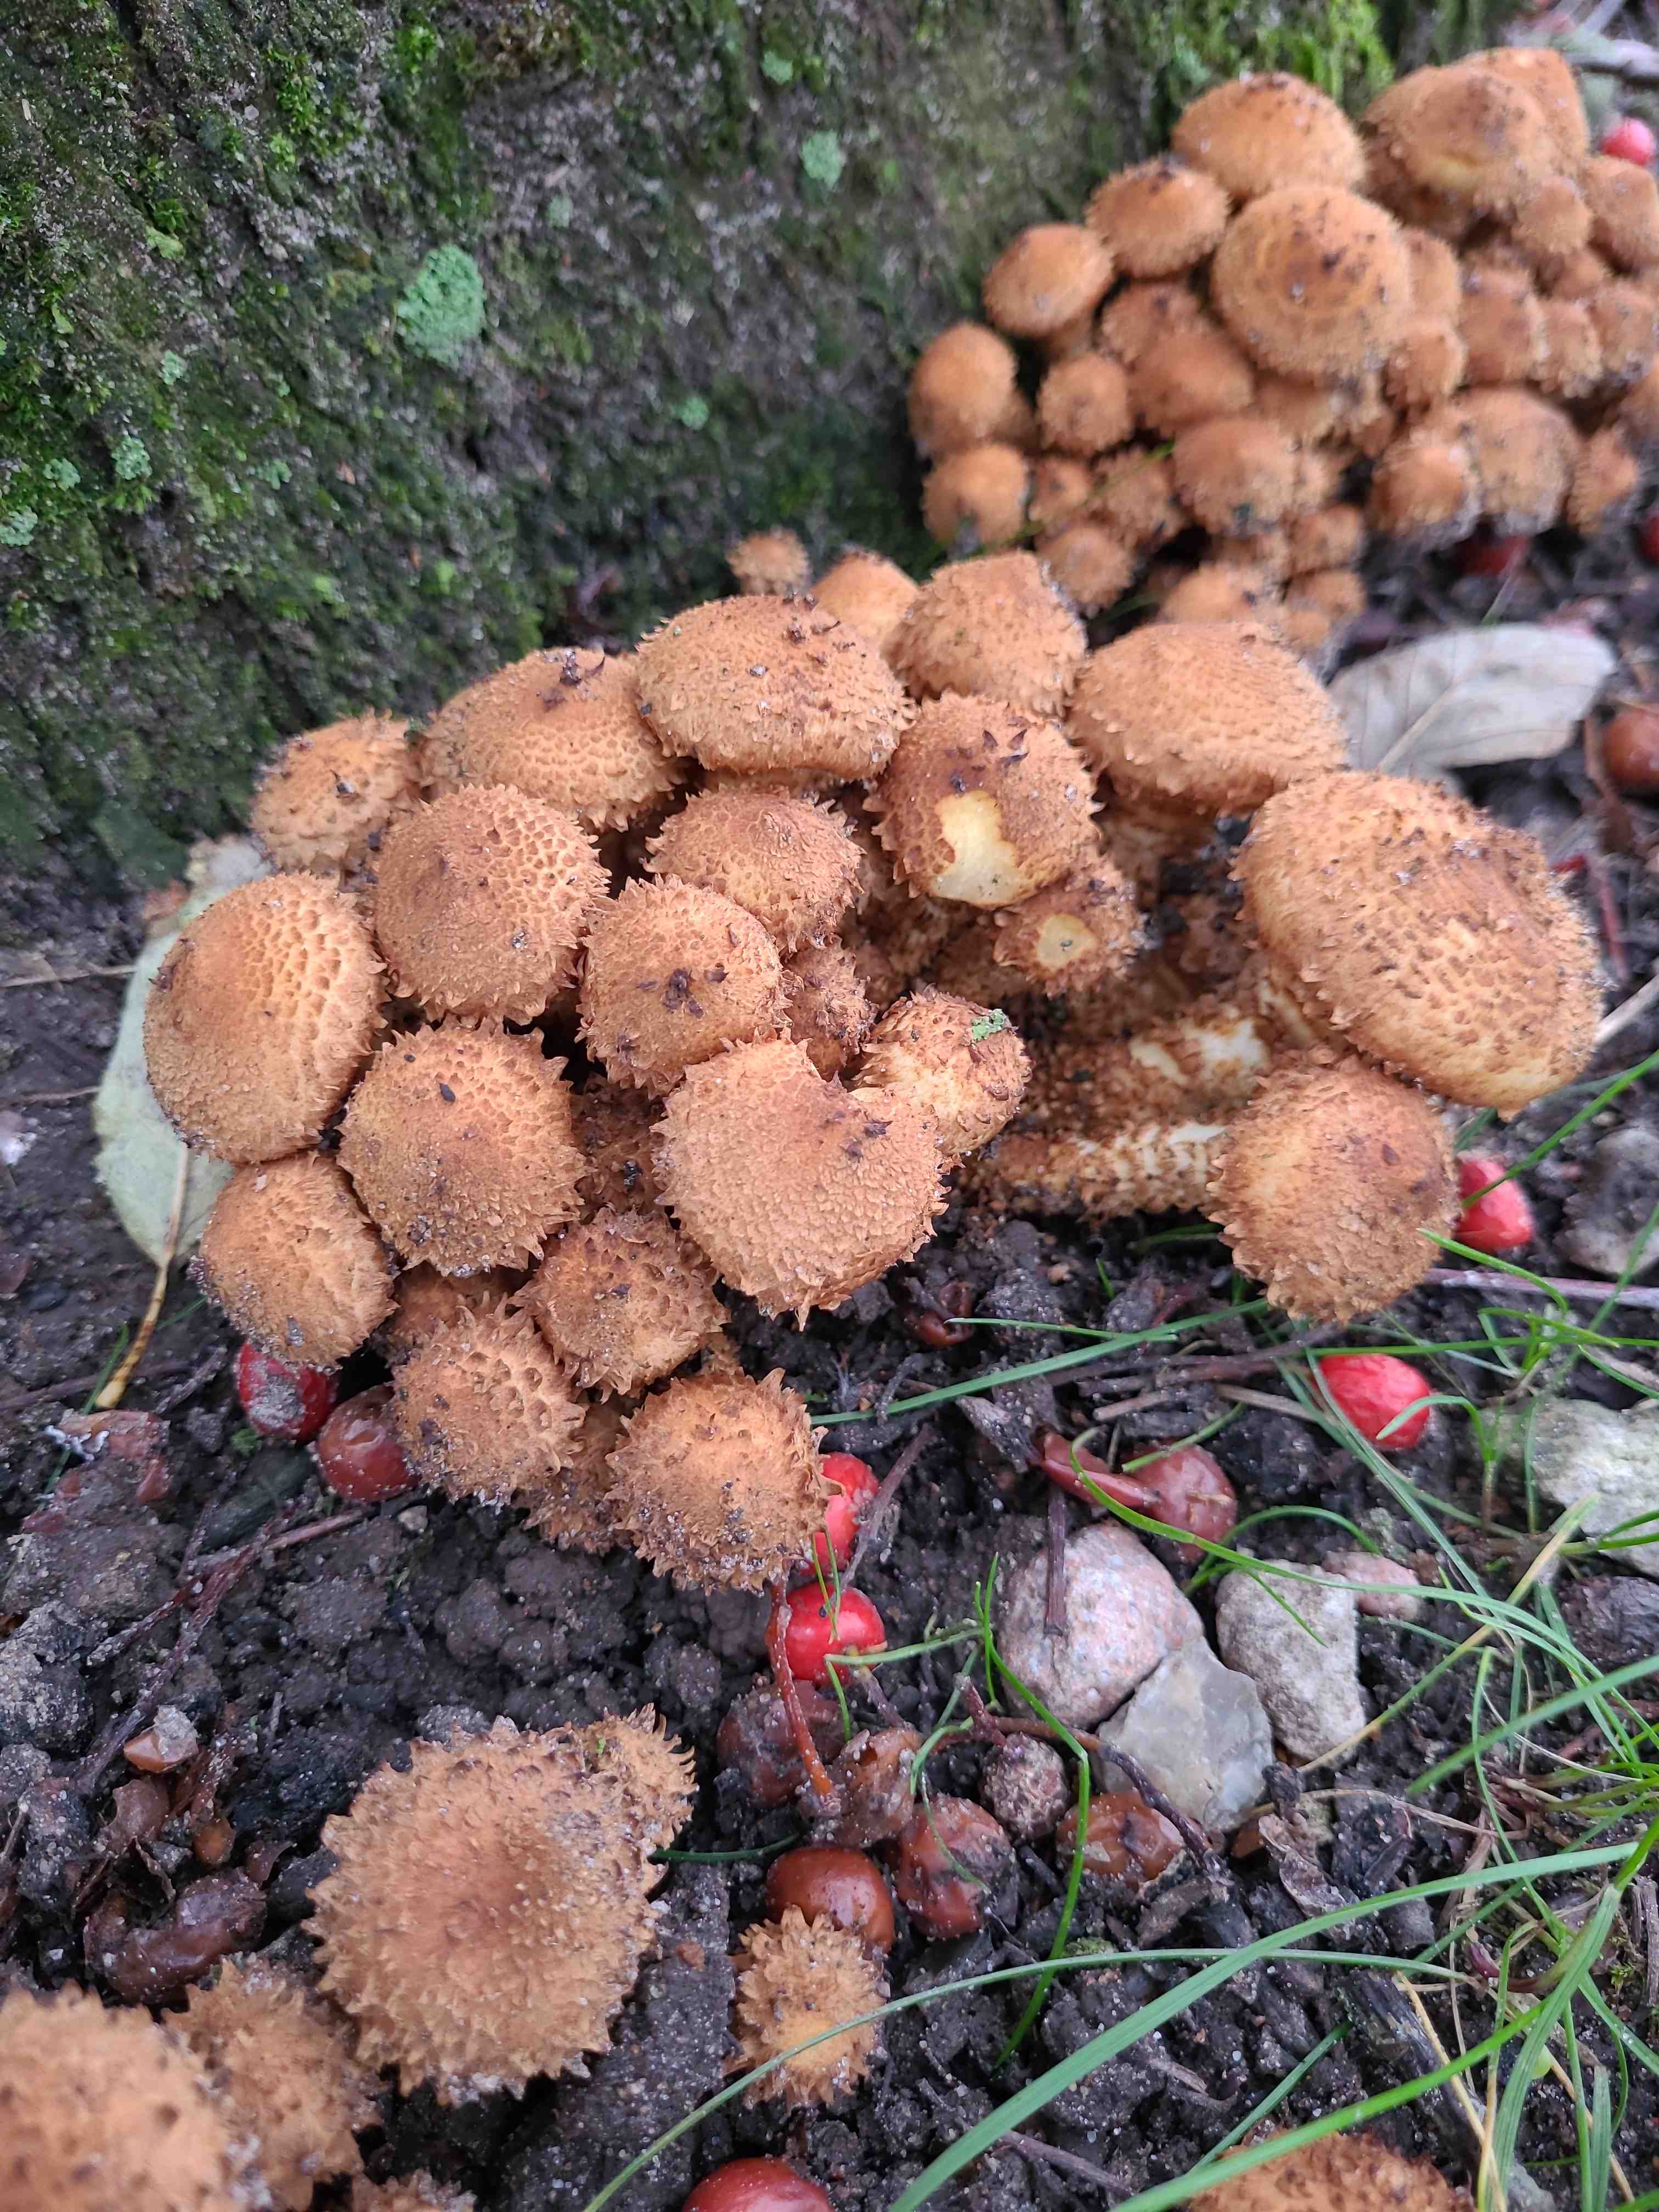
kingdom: Fungi
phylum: Basidiomycota
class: Agaricomycetes
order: Agaricales
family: Strophariaceae
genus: Pholiota
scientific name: Pholiota squarrosa
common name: krumskællet skælhat
